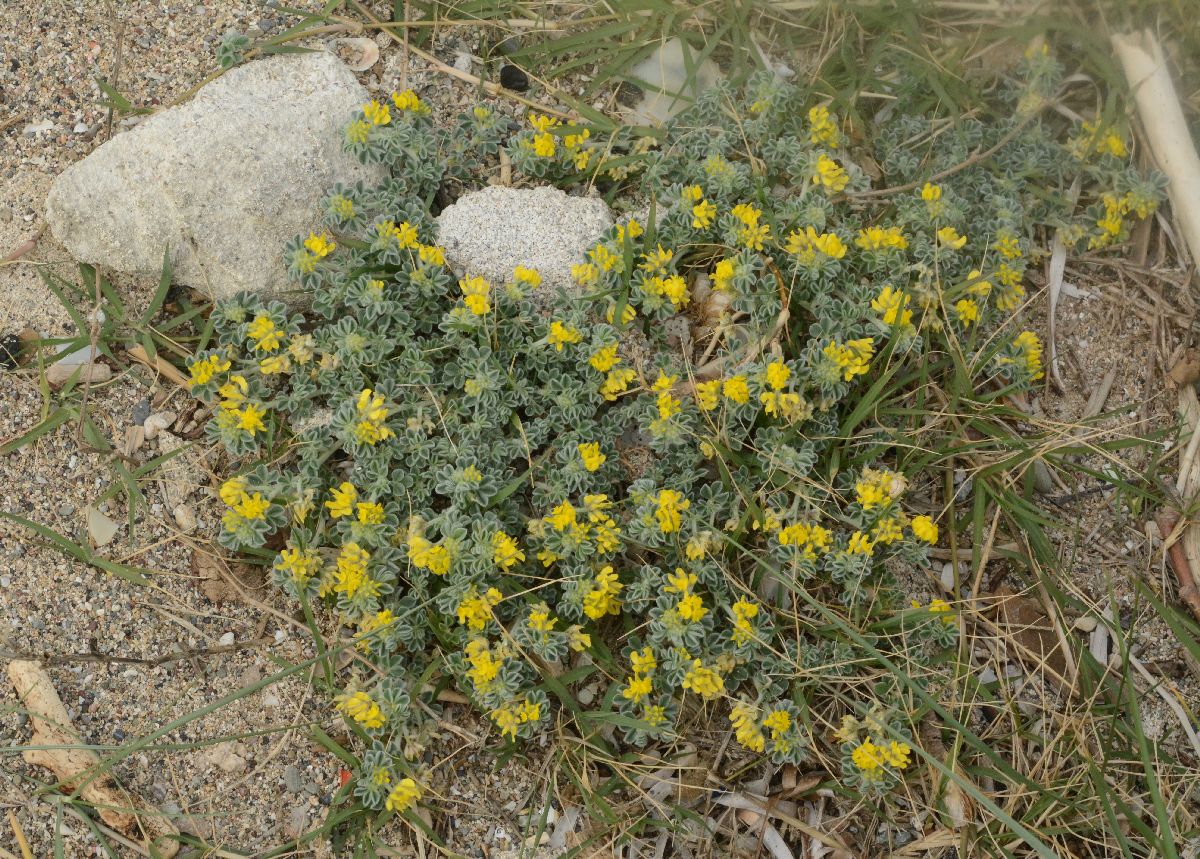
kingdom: Plantae
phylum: Tracheophyta
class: Magnoliopsida
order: Fabales
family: Fabaceae
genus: Medicago
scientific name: Medicago marina
